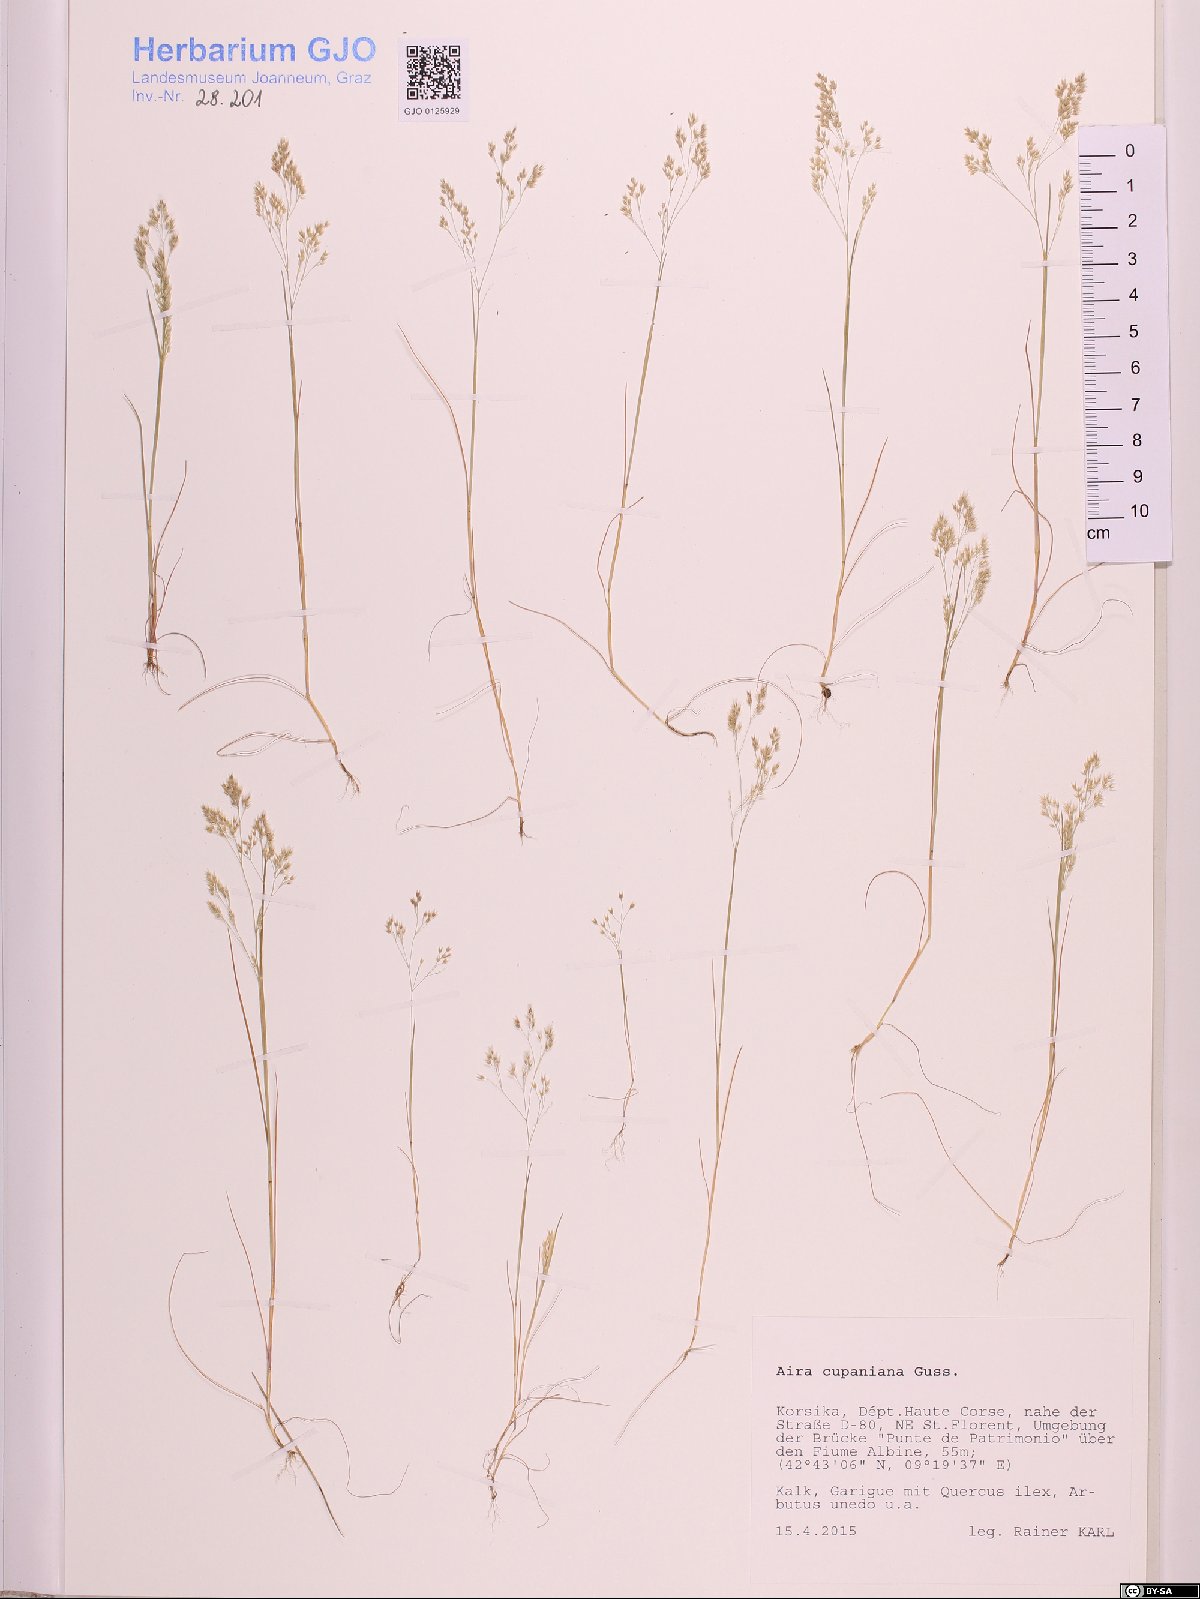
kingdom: Plantae
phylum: Tracheophyta
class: Liliopsida
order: Poales
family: Poaceae
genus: Aira
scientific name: Aira cupaniana
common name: Silver hairgrass
